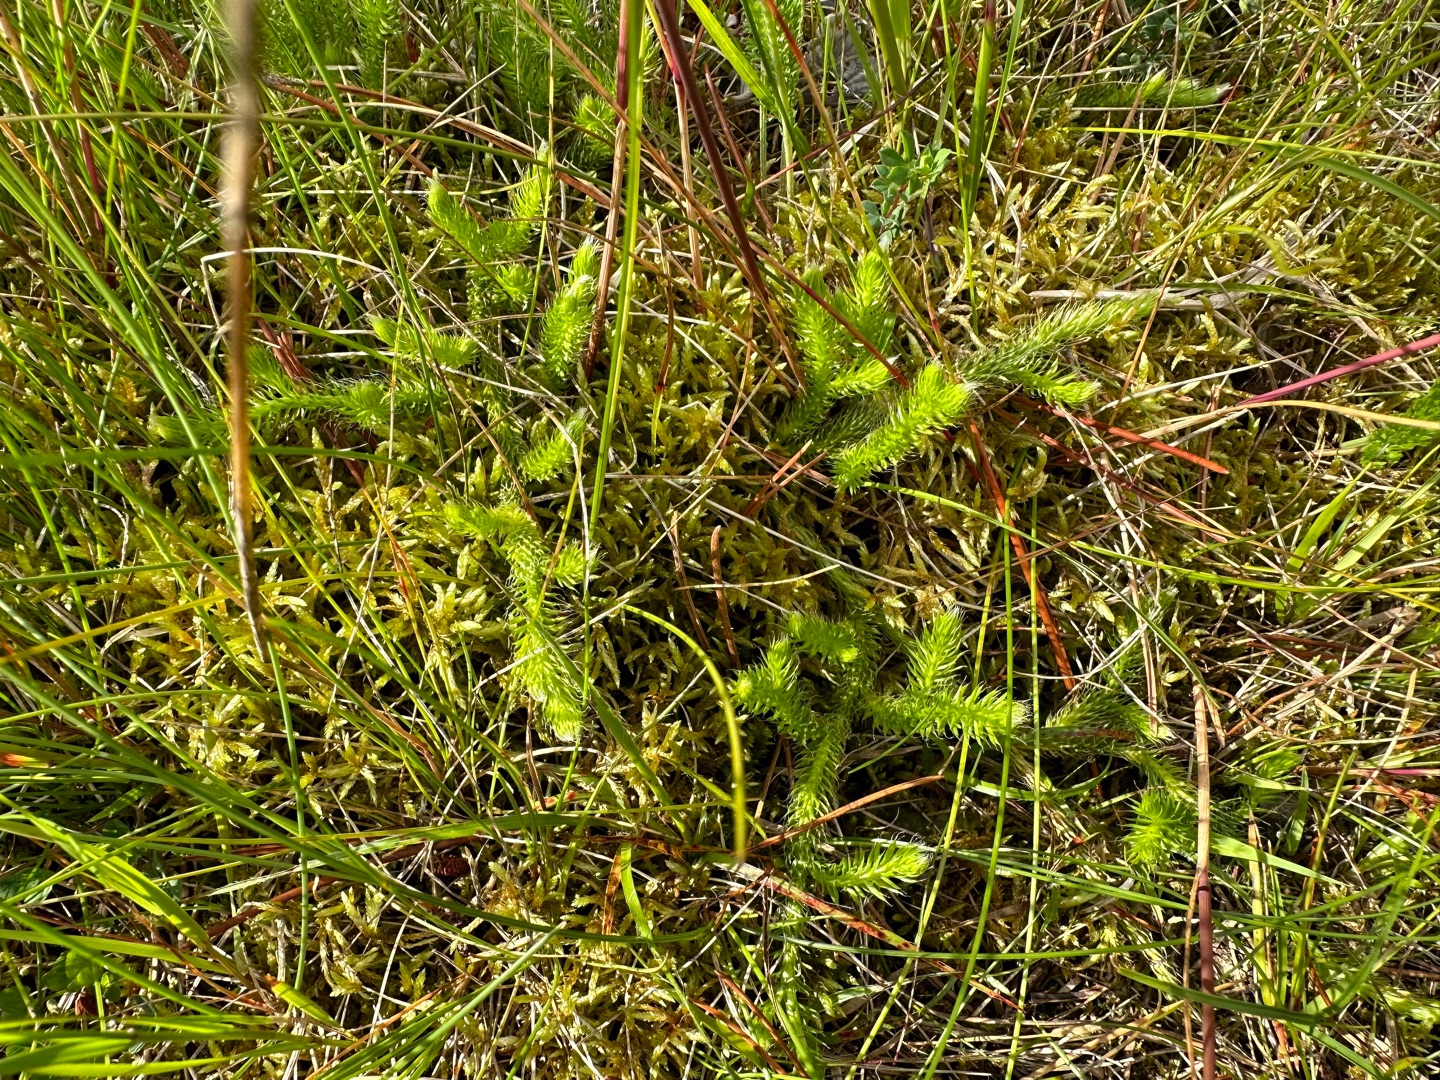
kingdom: Plantae
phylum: Tracheophyta
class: Lycopodiopsida
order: Lycopodiales
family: Lycopodiaceae
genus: Lycopodium
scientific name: Lycopodium clavatum
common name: Almindelig ulvefod
